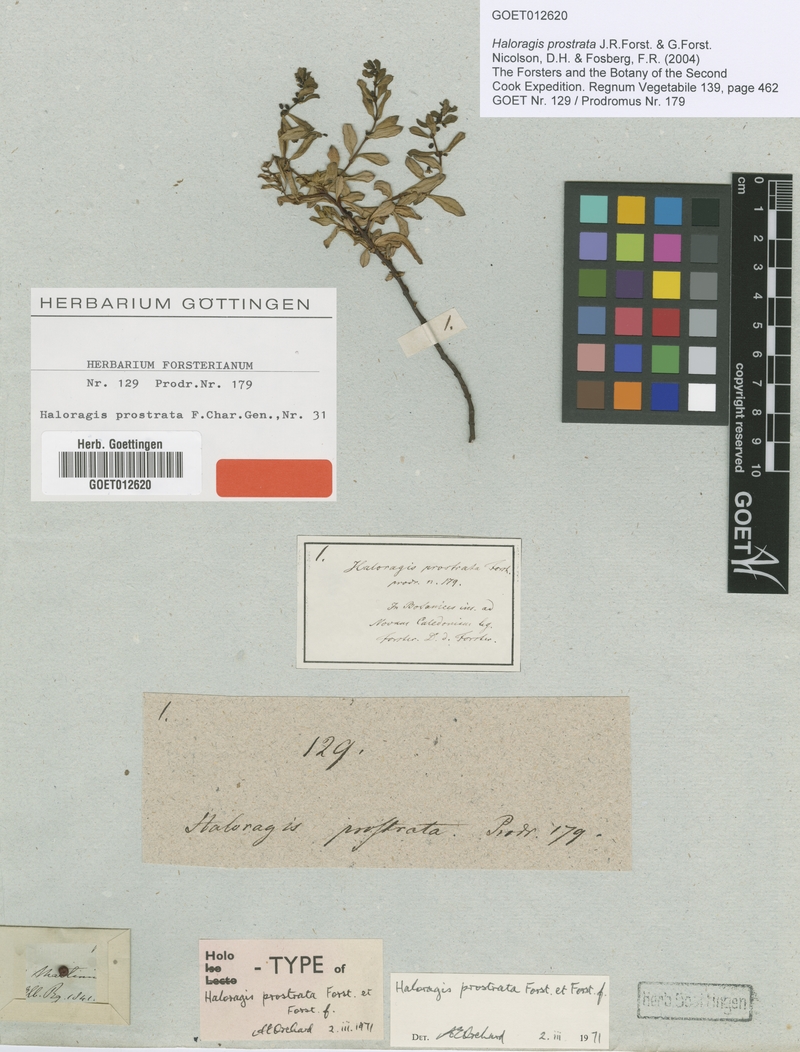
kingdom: Plantae
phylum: Tracheophyta
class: Magnoliopsida
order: Saxifragales
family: Haloragaceae
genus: Haloragis
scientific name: Haloragis prostrata
